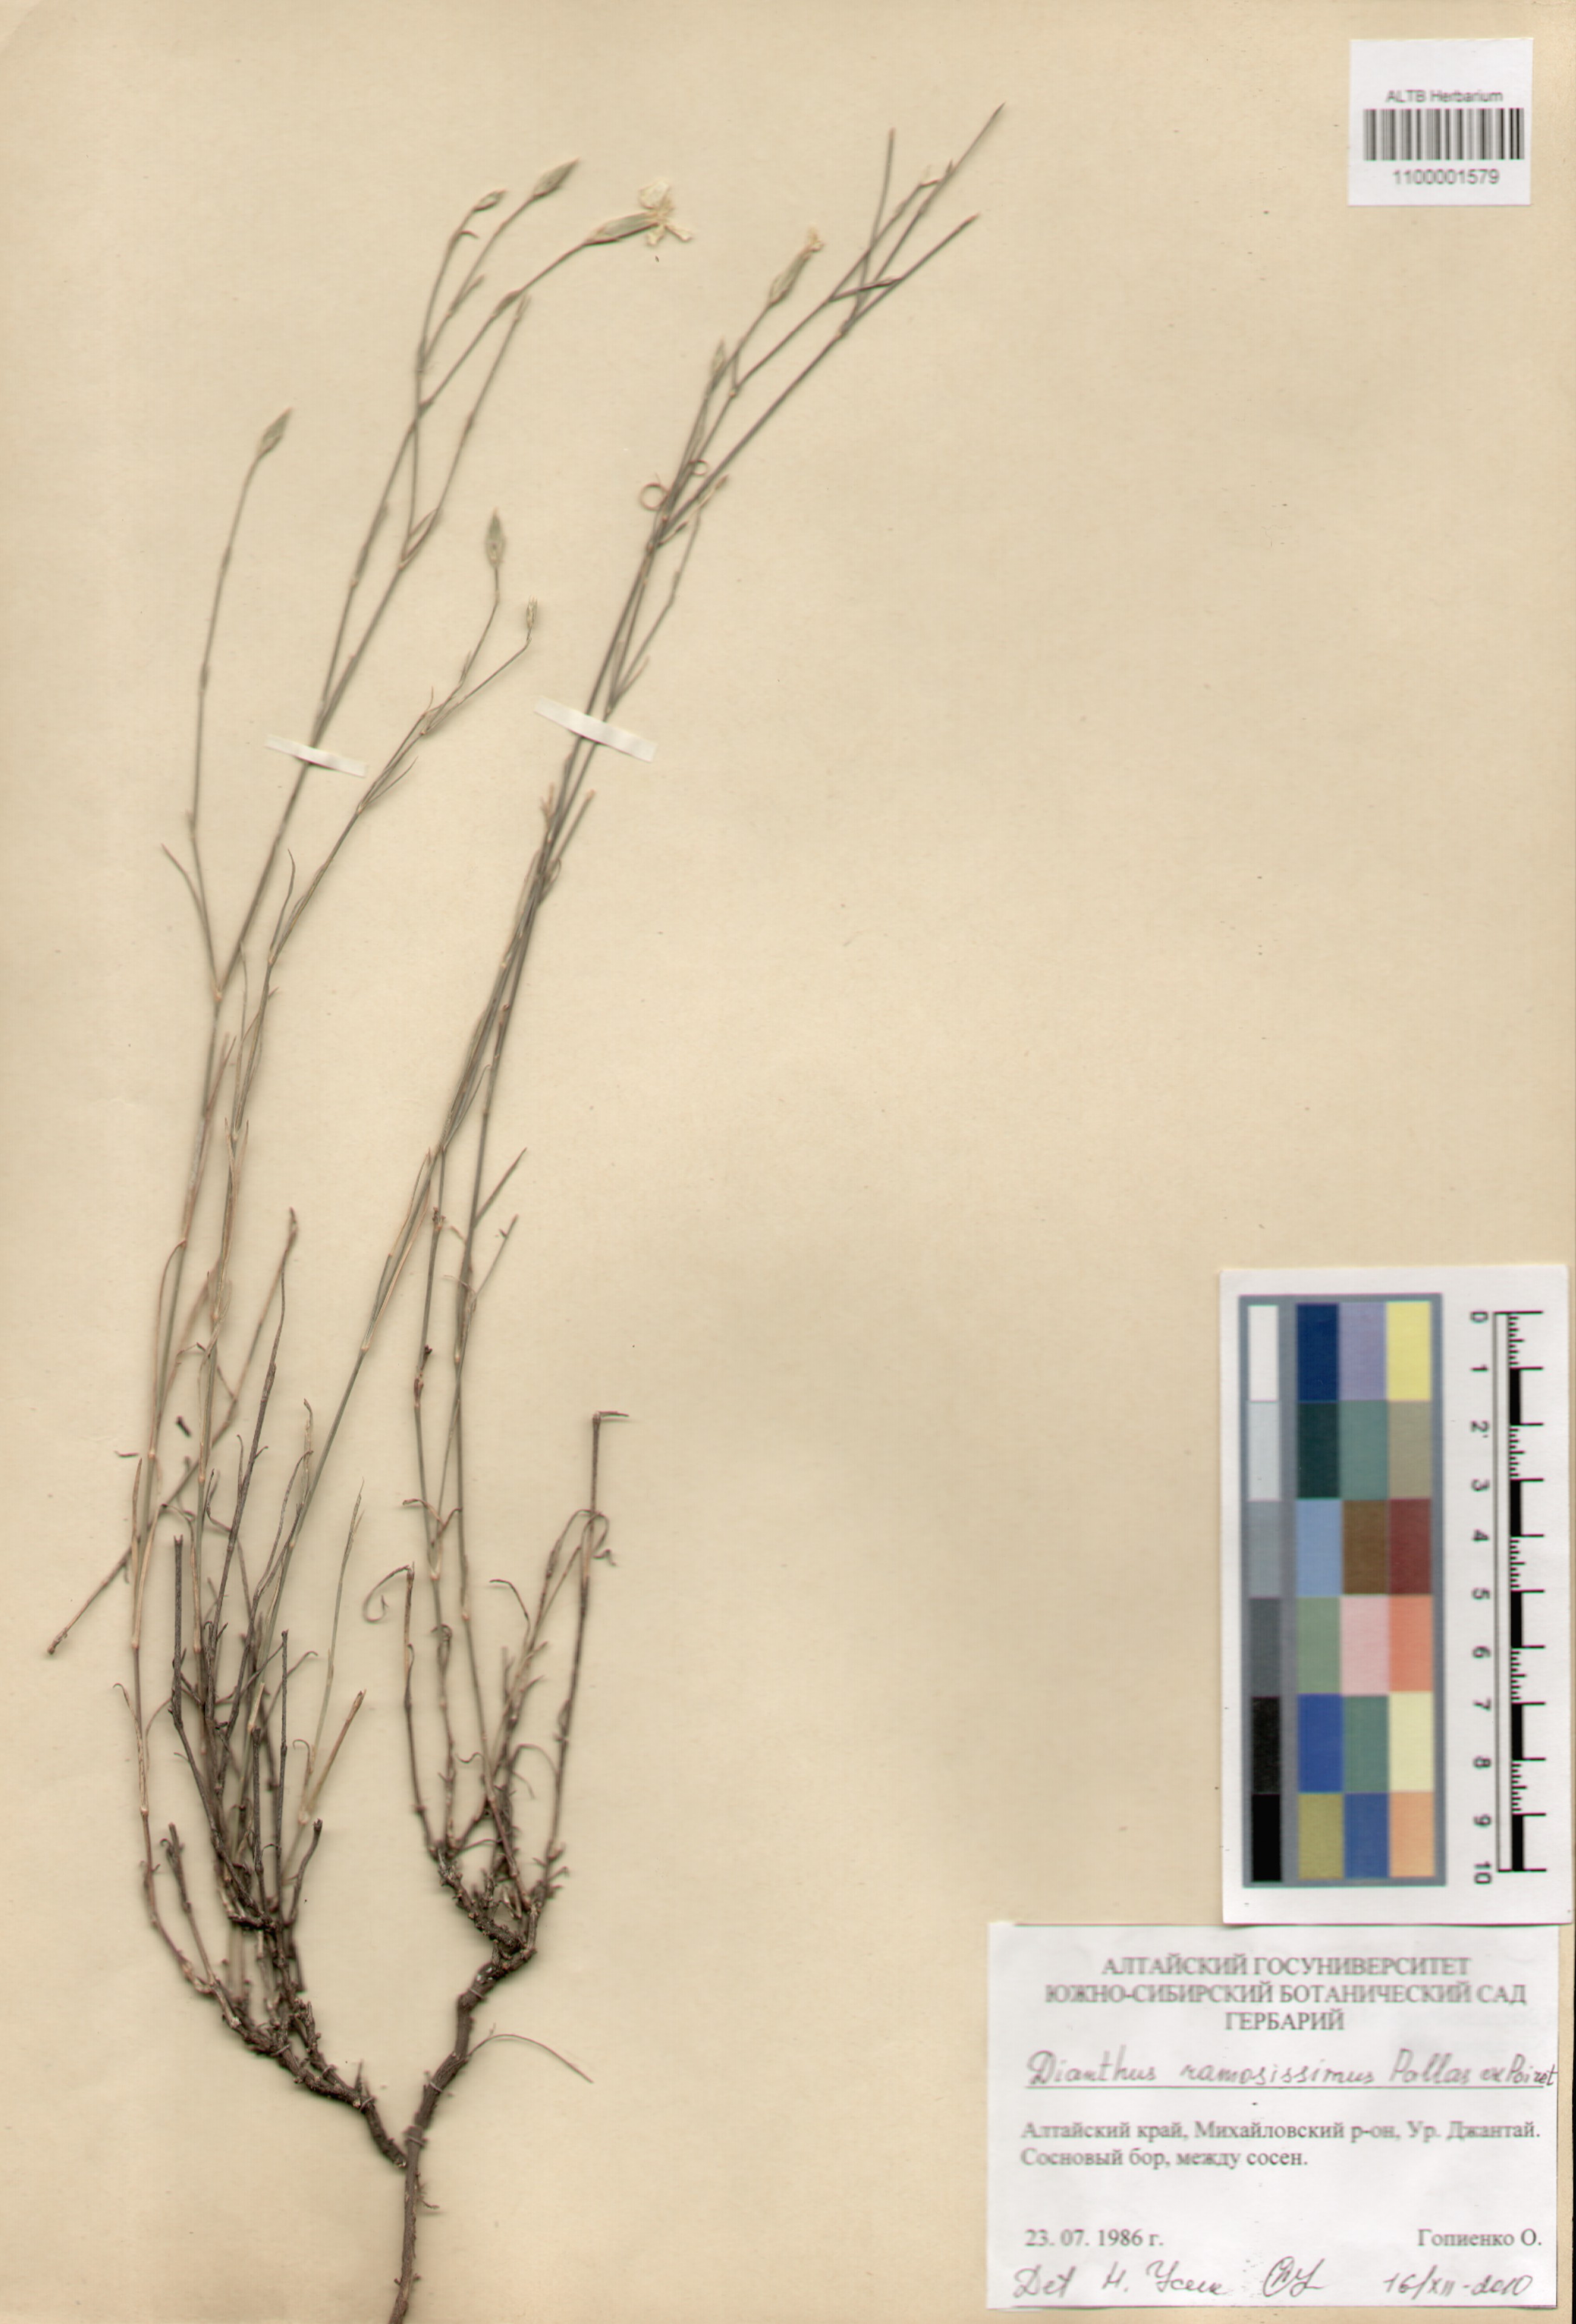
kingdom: Plantae
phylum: Tracheophyta
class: Magnoliopsida
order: Caryophyllales
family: Caryophyllaceae
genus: Dianthus
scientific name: Dianthus ramosissimus
